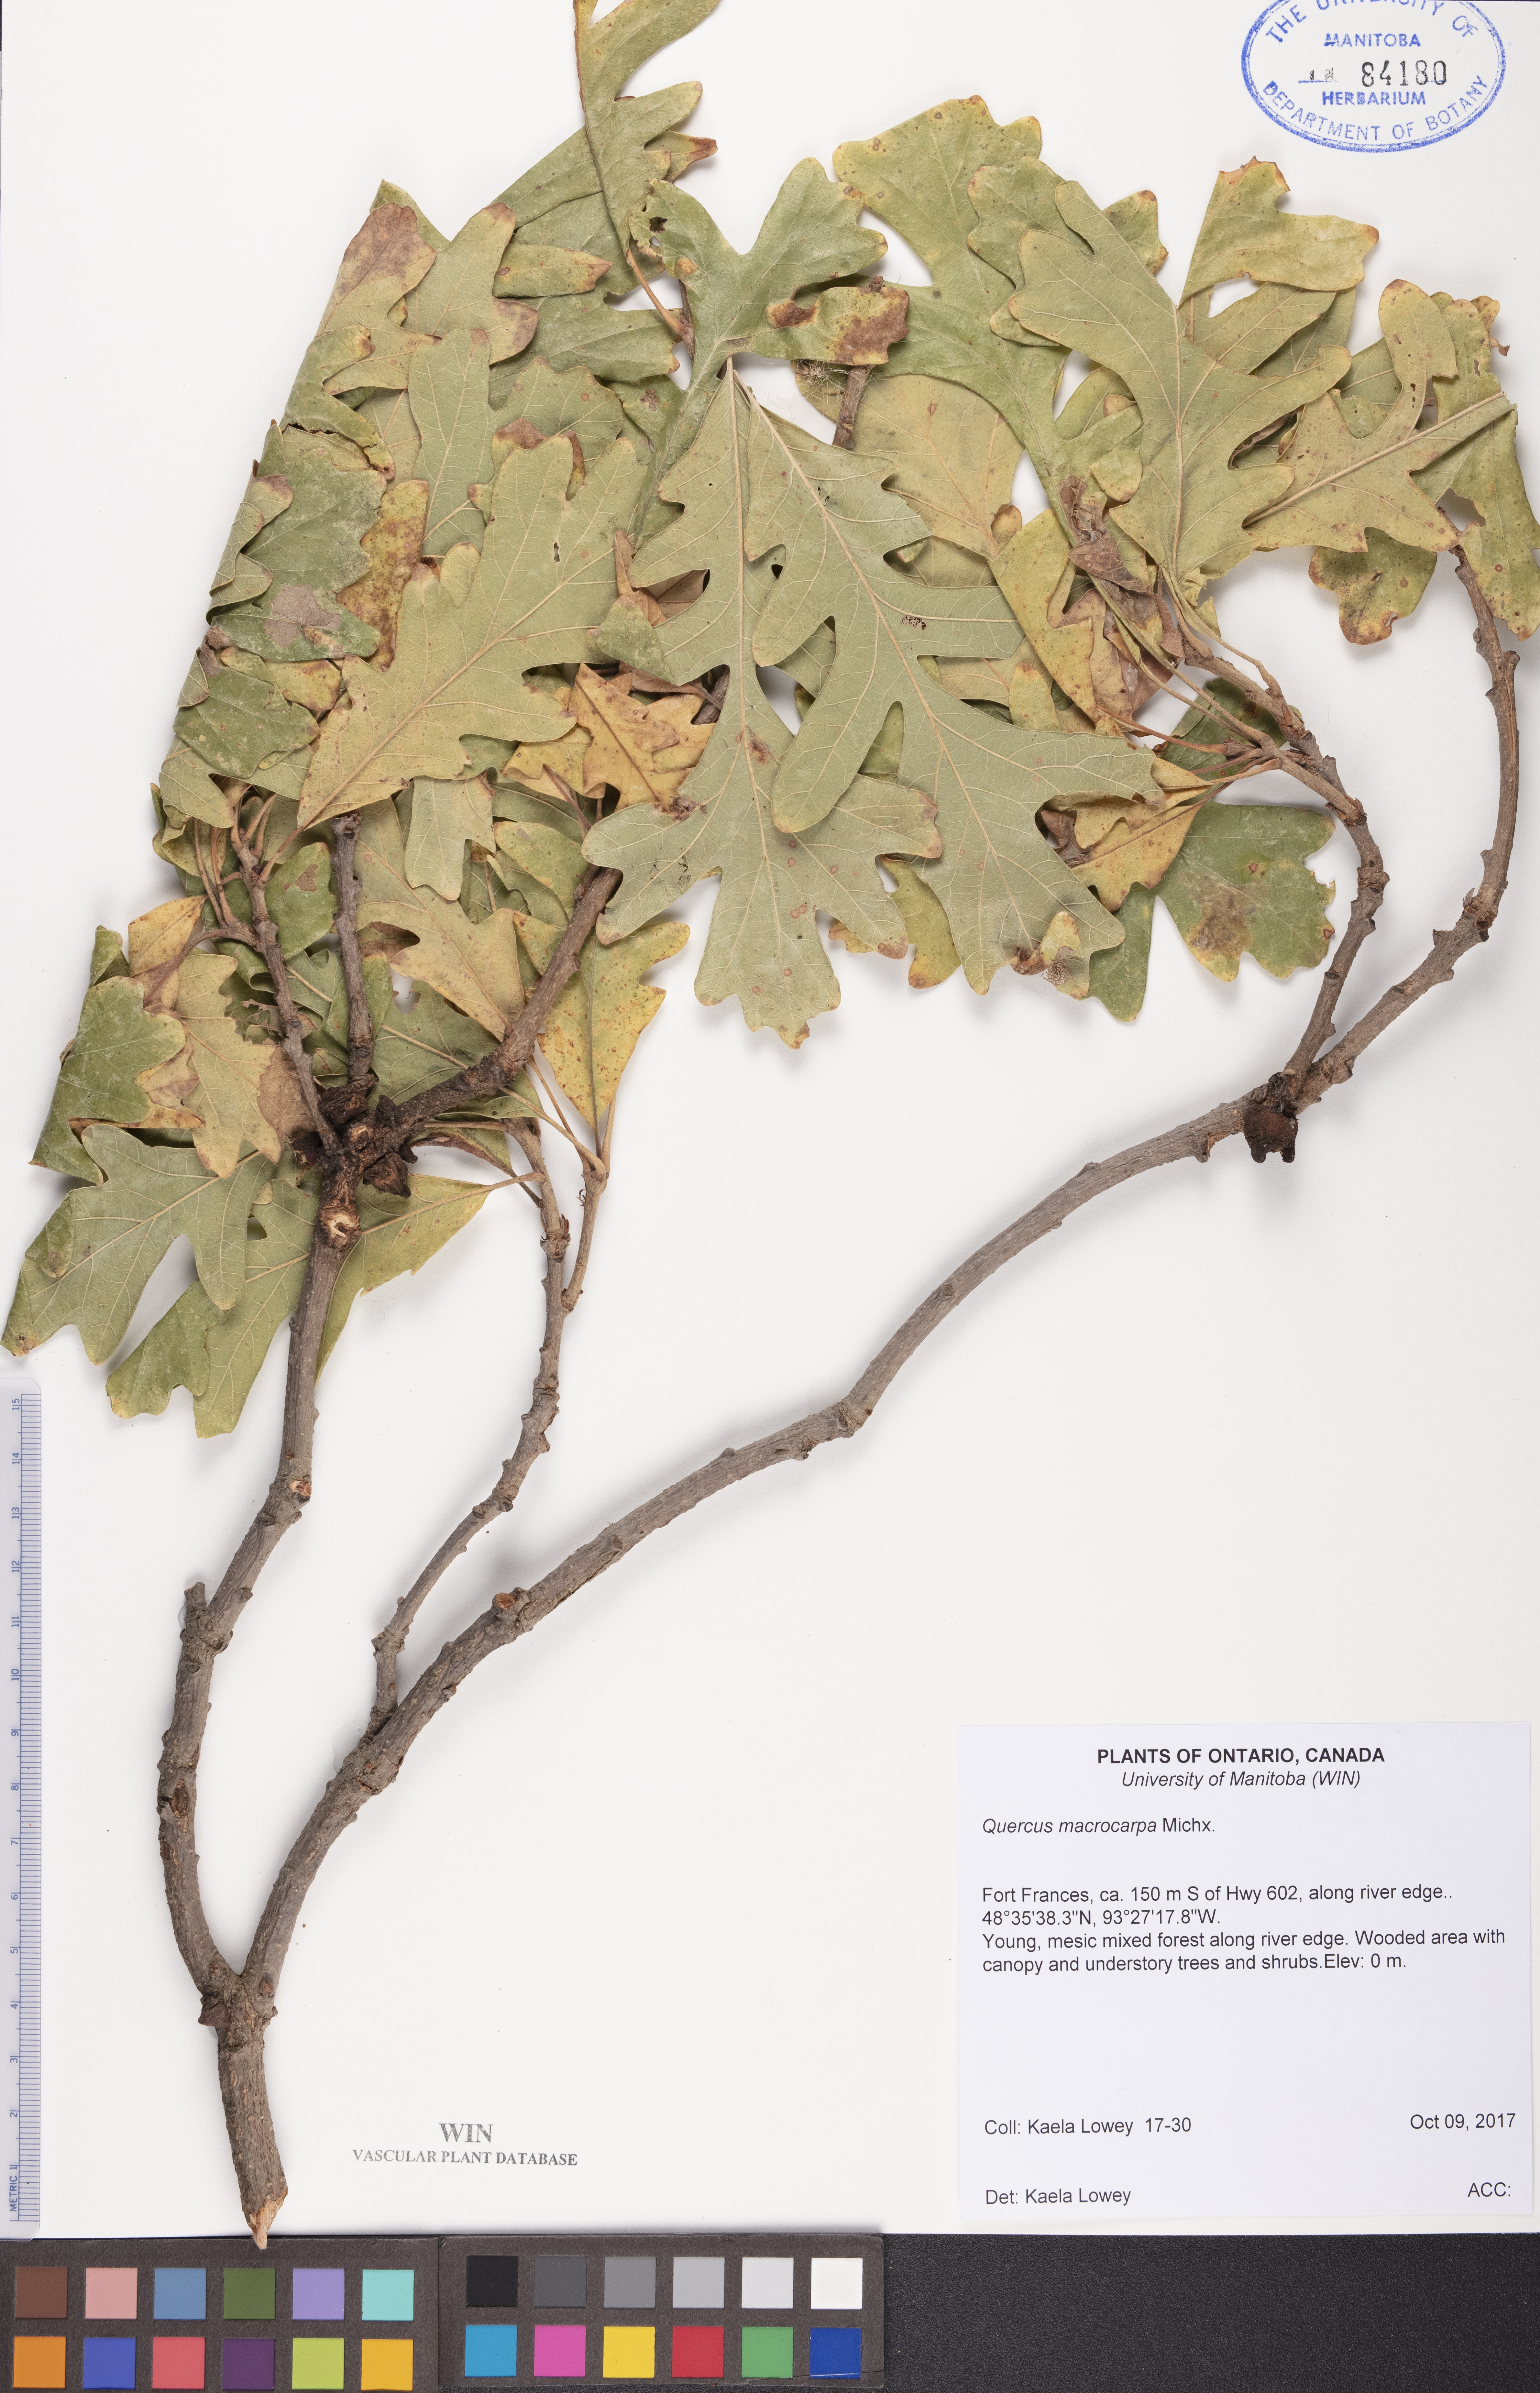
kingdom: Plantae
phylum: Tracheophyta
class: Magnoliopsida
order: Fagales
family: Fagaceae
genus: Quercus
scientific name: Quercus macrocarpa
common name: Bur oak
